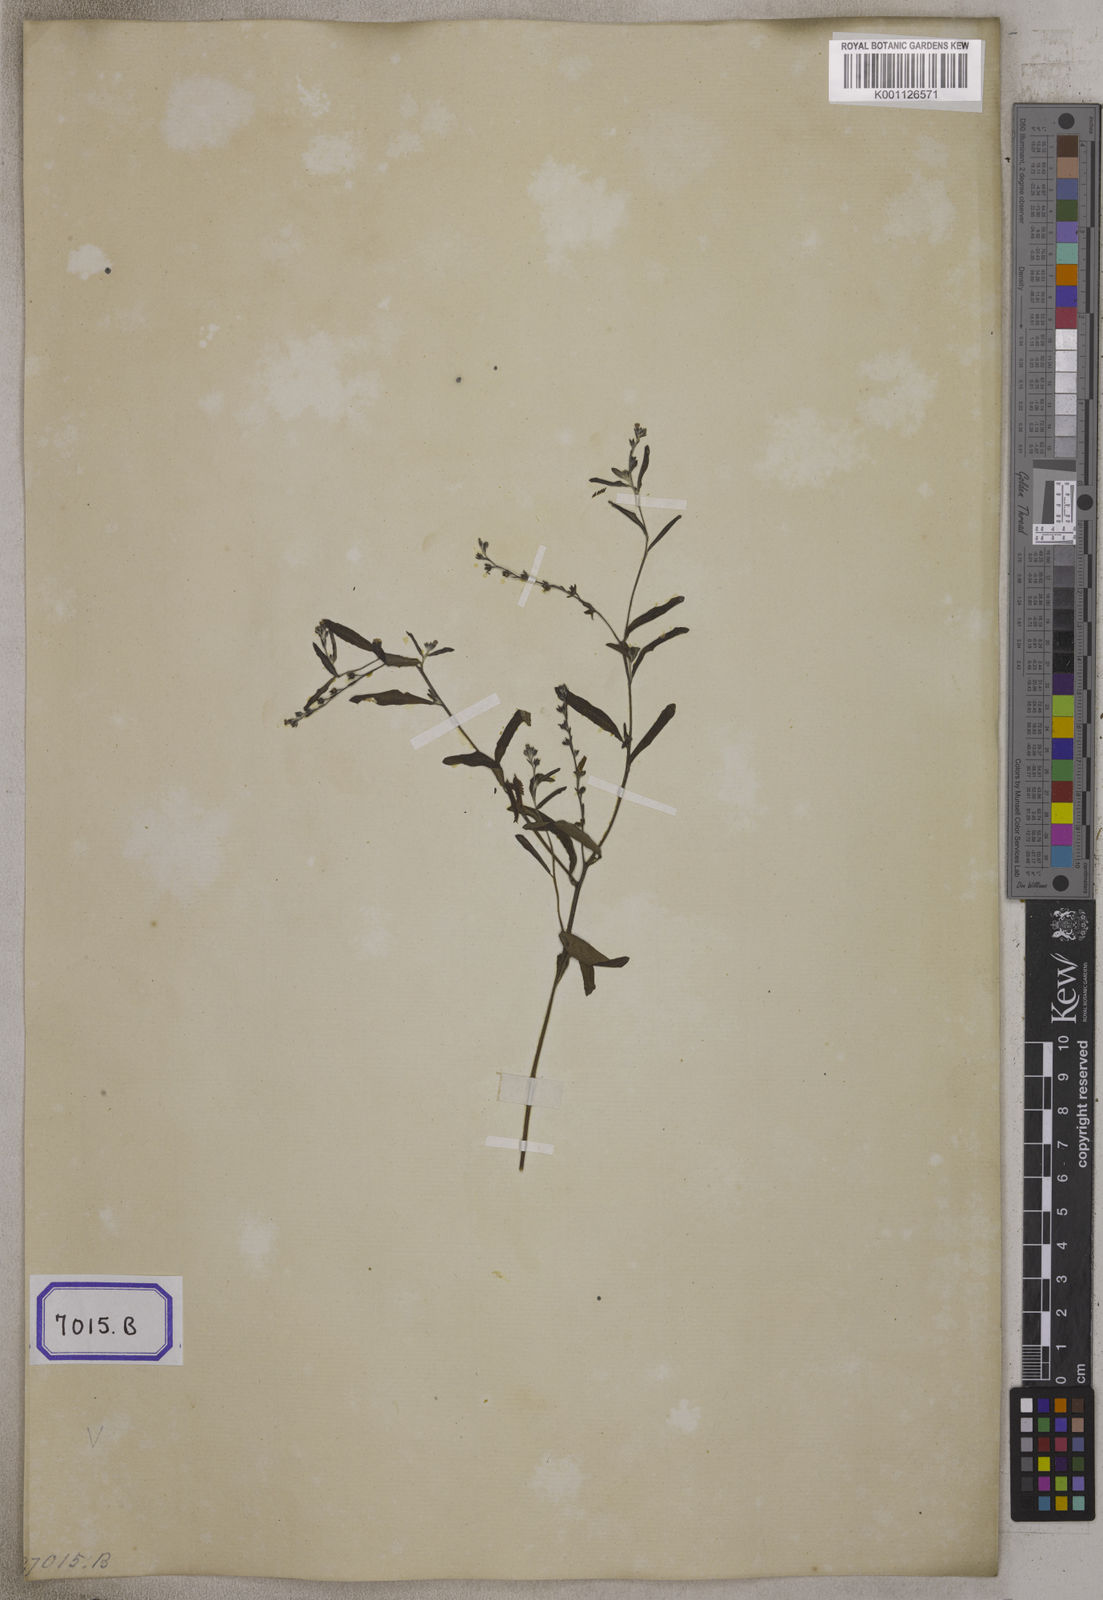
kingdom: Plantae
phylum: Tracheophyta
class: Magnoliopsida
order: Boraginales
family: Heliotropiaceae
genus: Euploca
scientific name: Euploca bracteata
